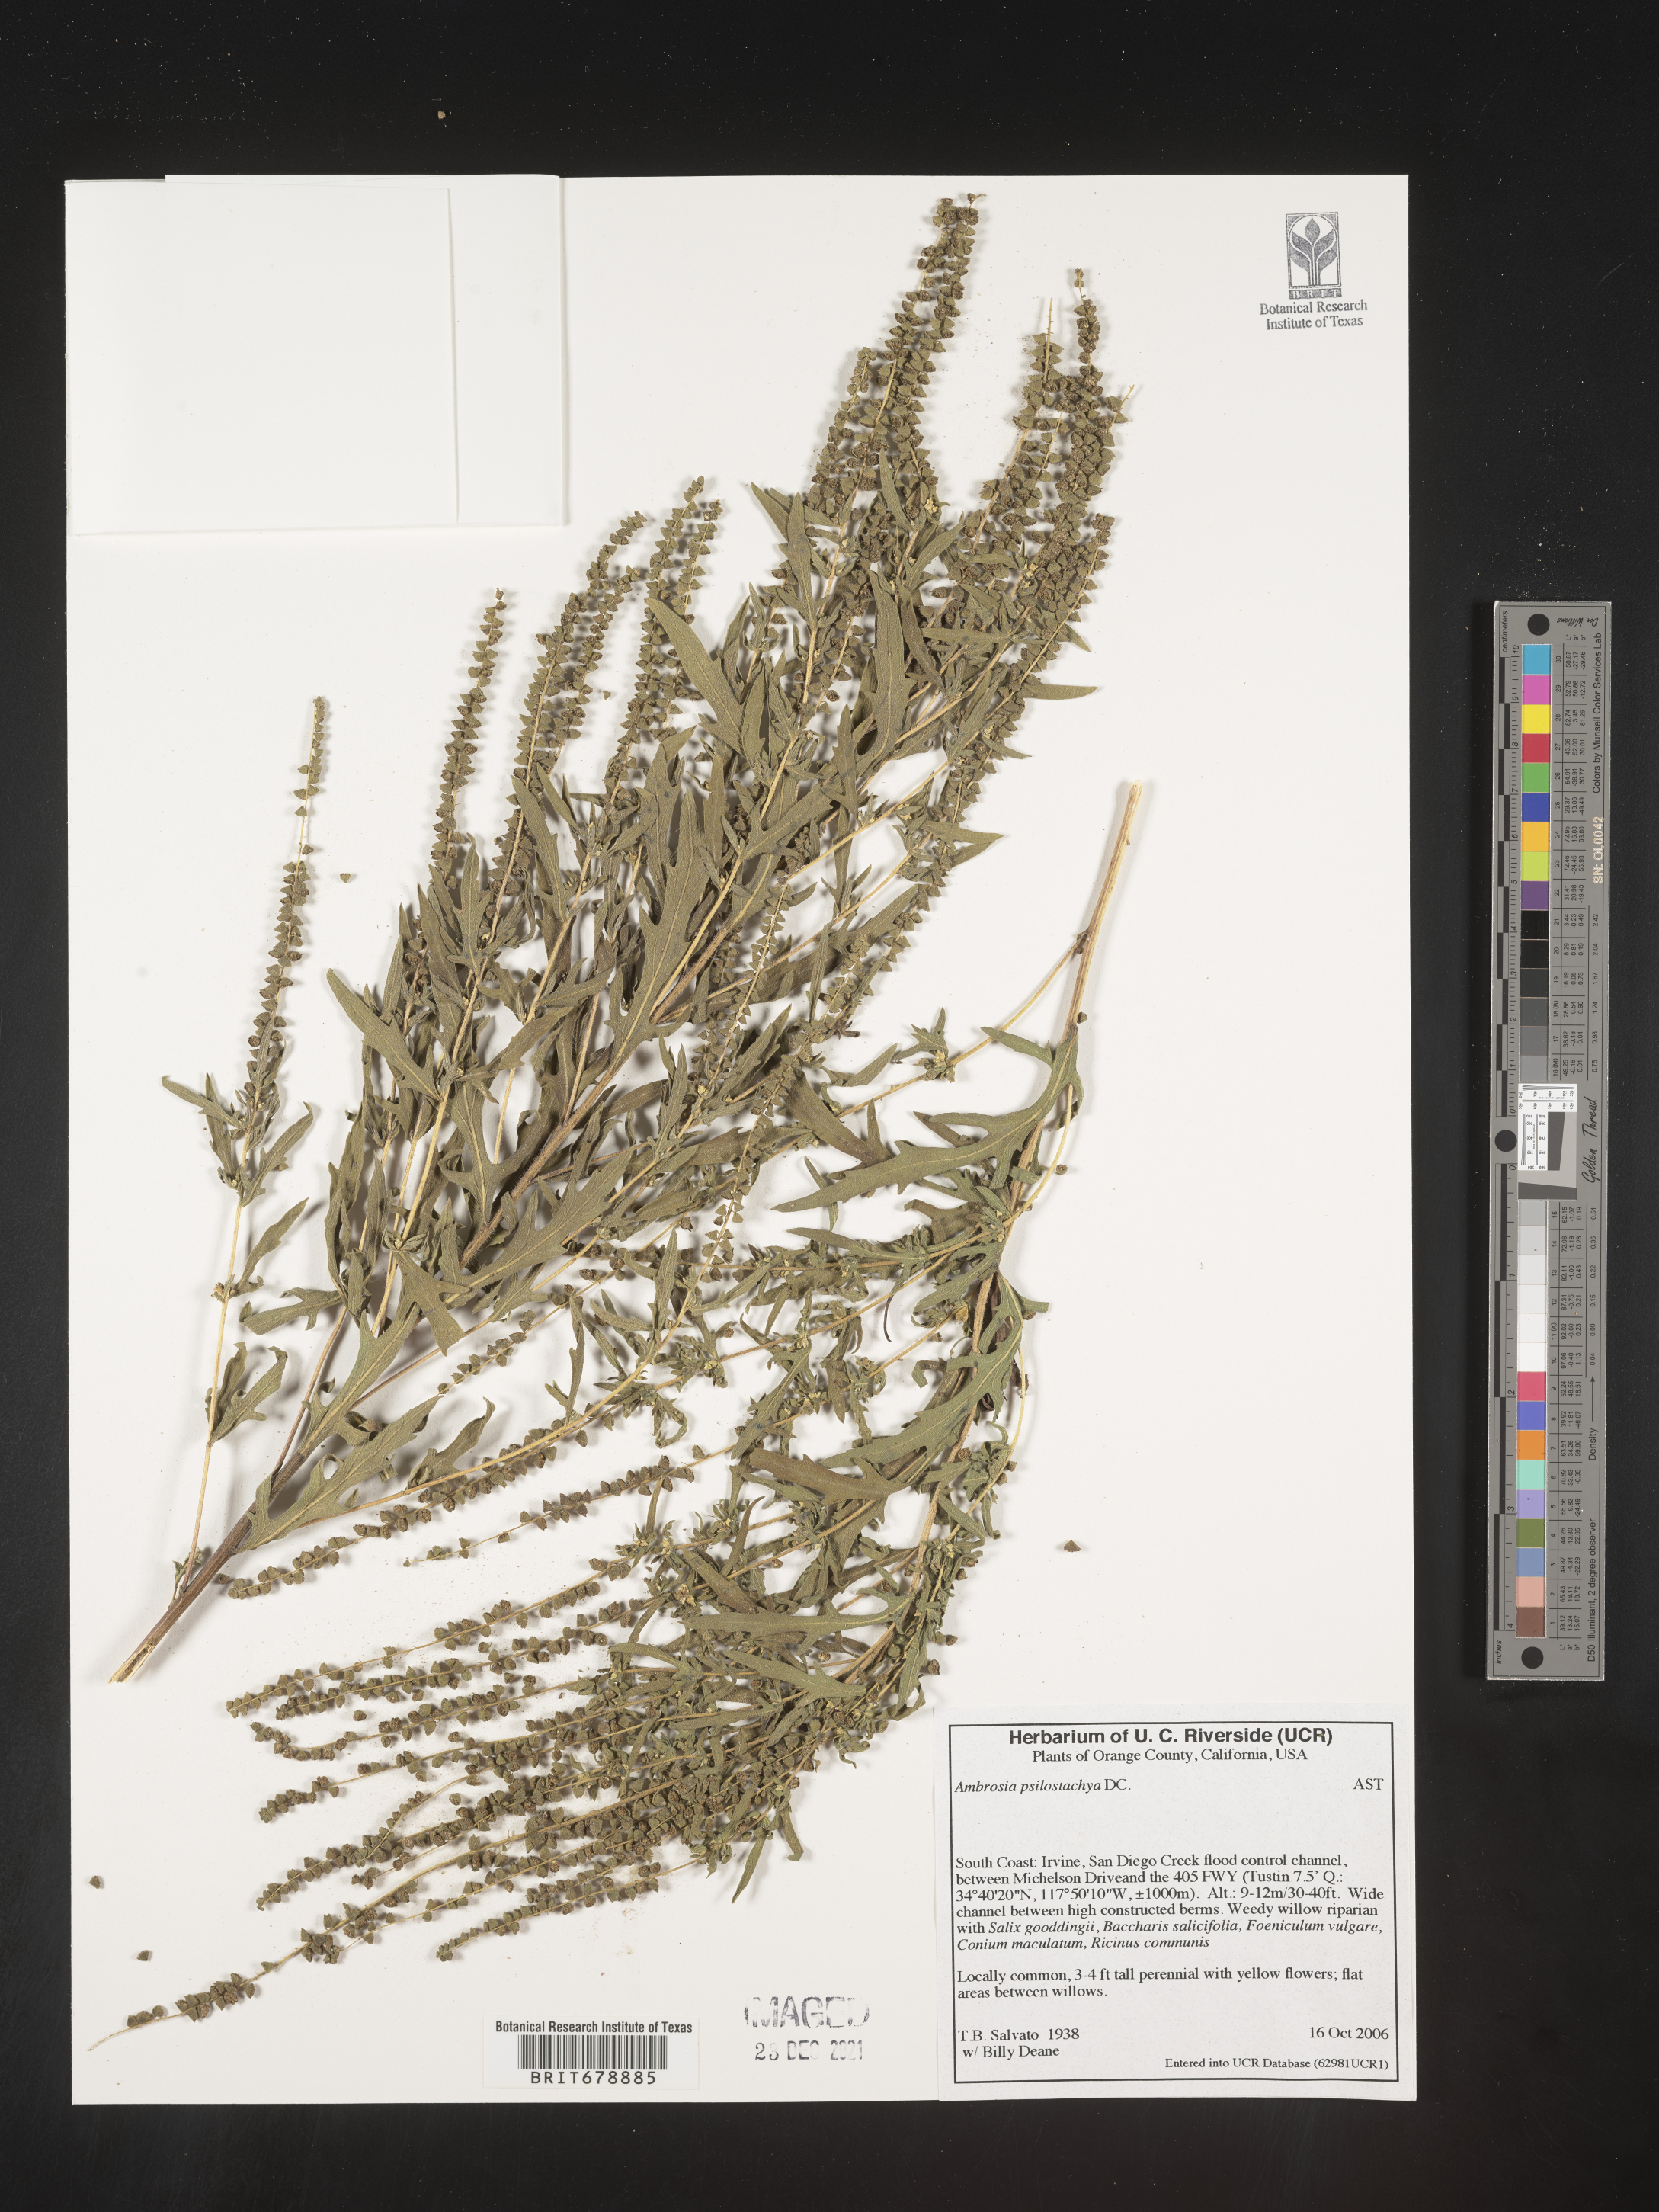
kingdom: Plantae
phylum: Tracheophyta
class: Magnoliopsida
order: Asterales
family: Asteraceae
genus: Ambrosia
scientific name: Ambrosia psilostachya
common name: Perennial ragweed
